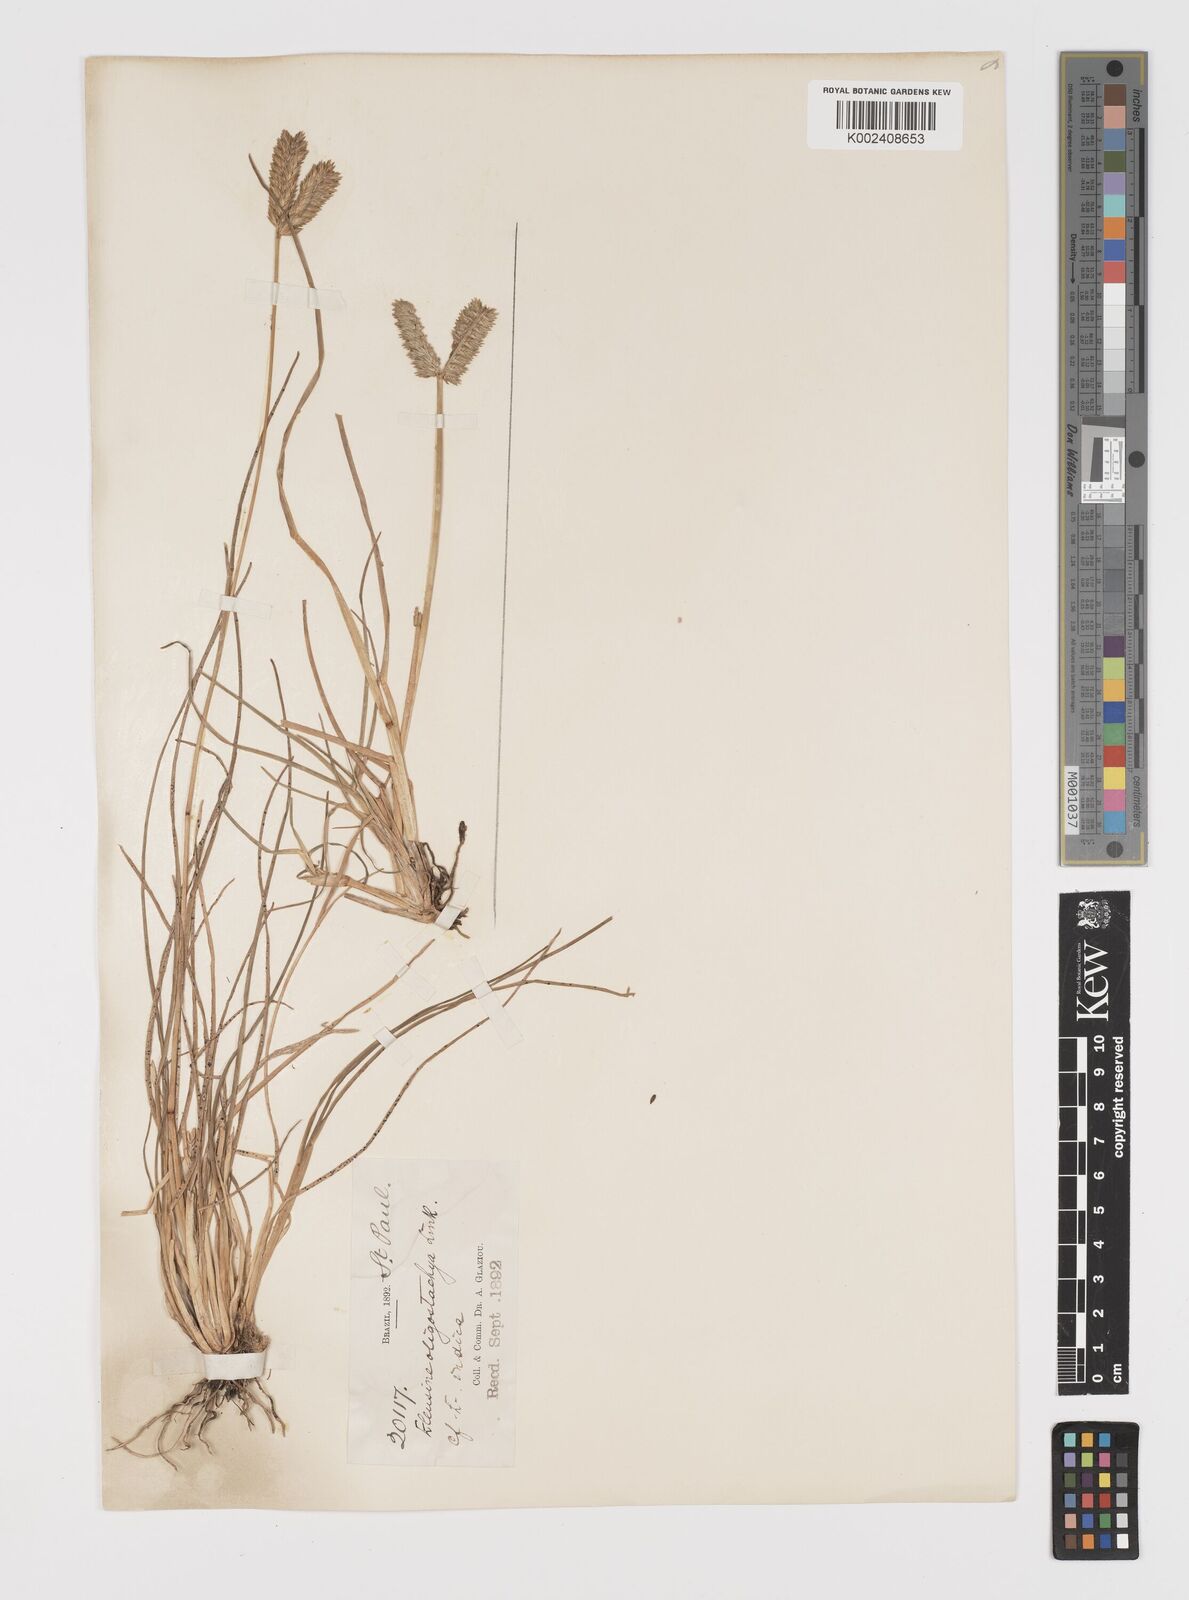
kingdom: Plantae
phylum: Tracheophyta
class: Liliopsida
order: Poales
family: Poaceae
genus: Eleusine
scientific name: Eleusine tristachya
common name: American yard-grass
